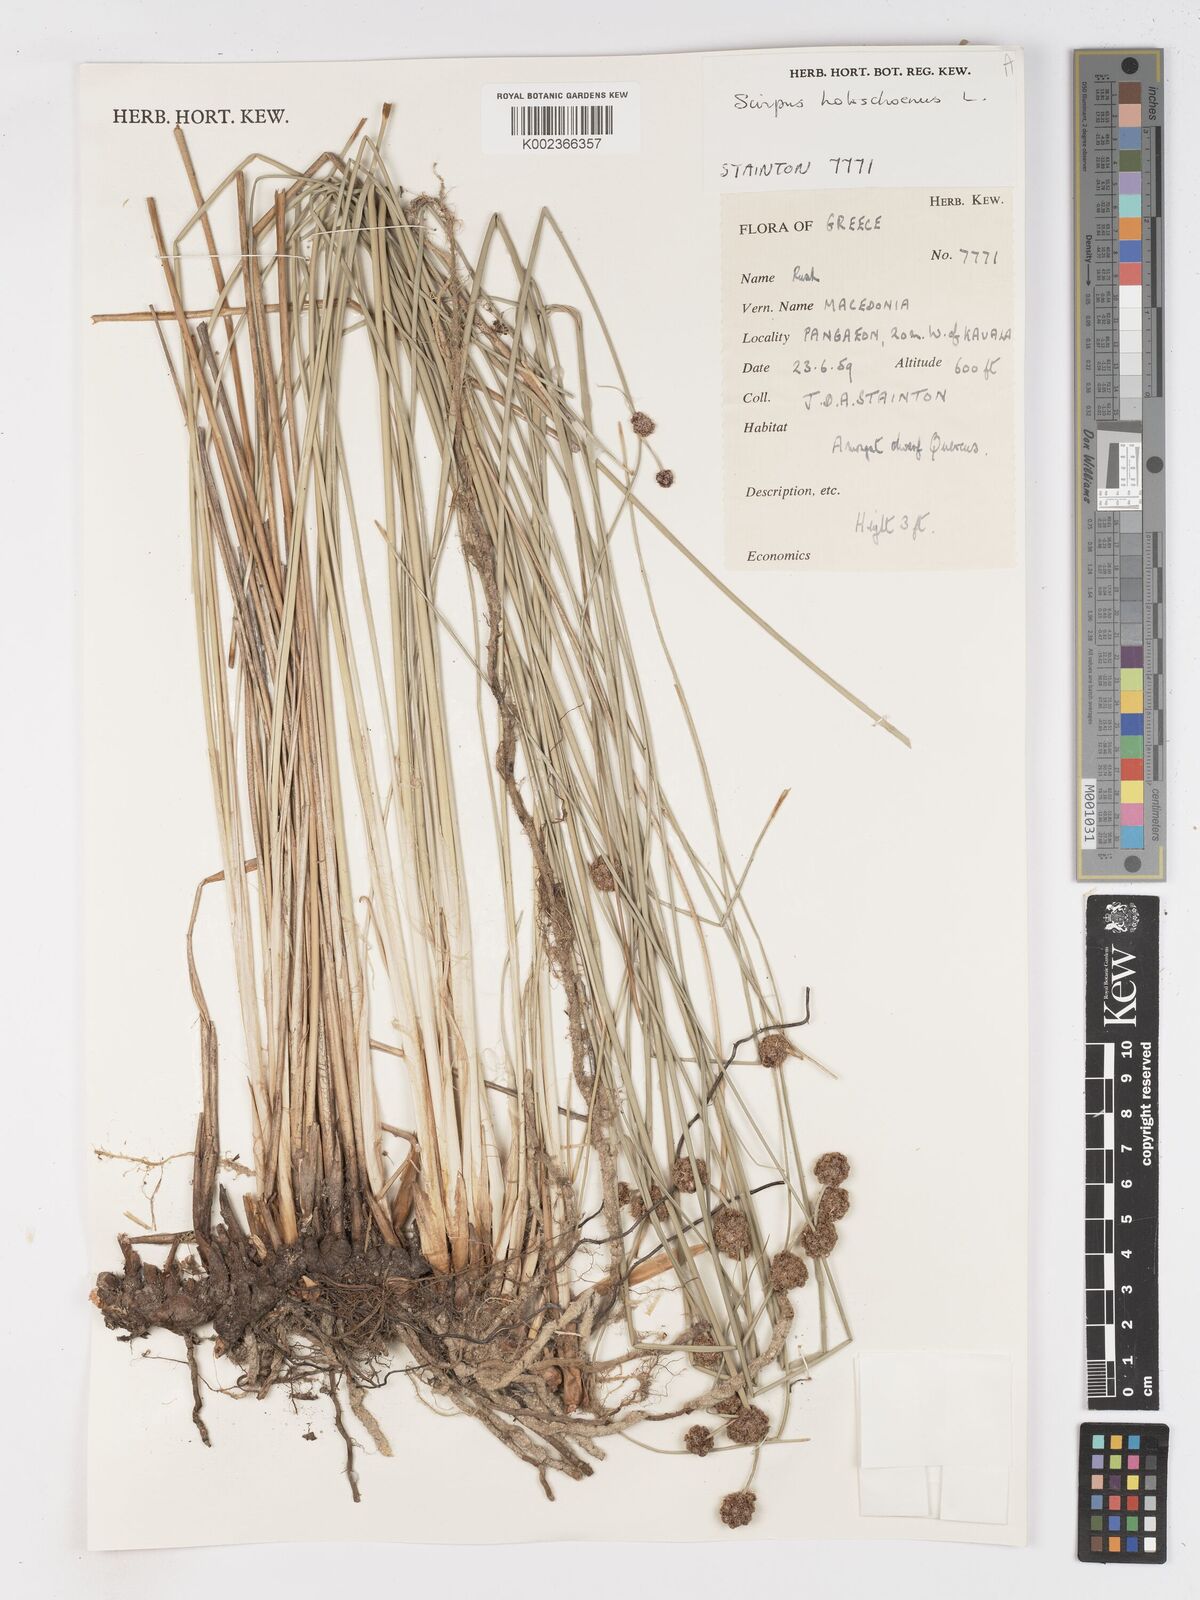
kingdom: Plantae
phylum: Tracheophyta
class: Liliopsida
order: Poales
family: Cyperaceae
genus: Scirpoides
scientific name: Scirpoides holoschoenus
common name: Round-headed club-rush
